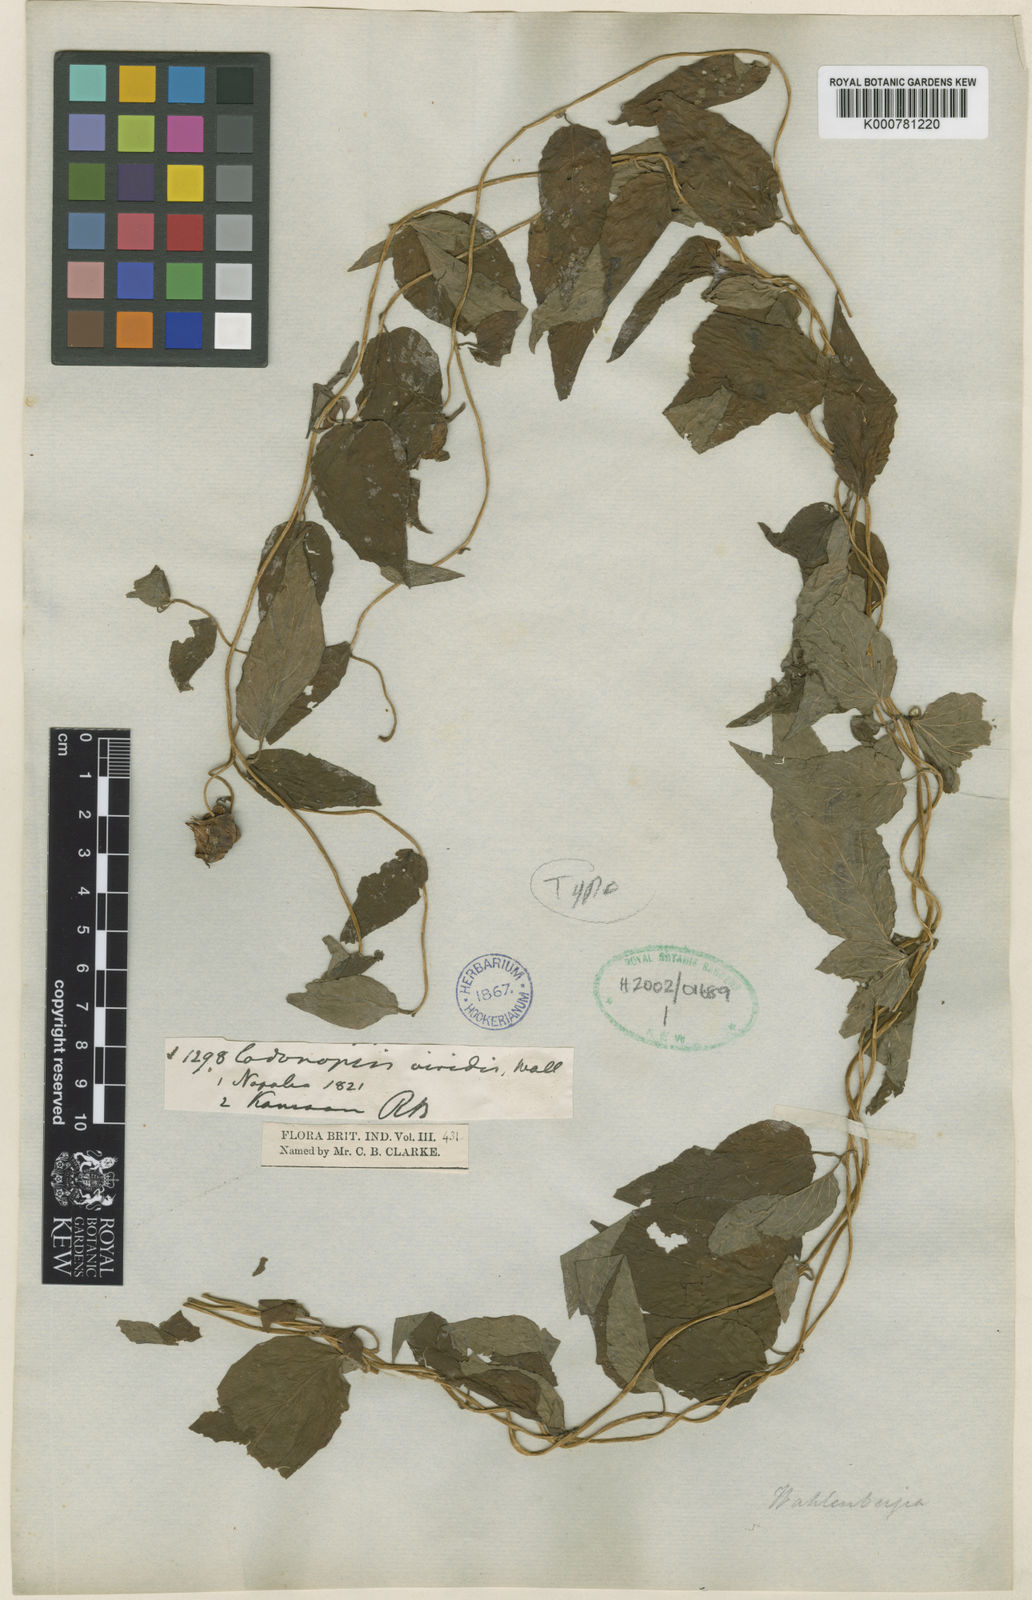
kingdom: Plantae
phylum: Tracheophyta
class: Magnoliopsida
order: Asterales
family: Campanulaceae
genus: Codonopsis
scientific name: Codonopsis viridis
